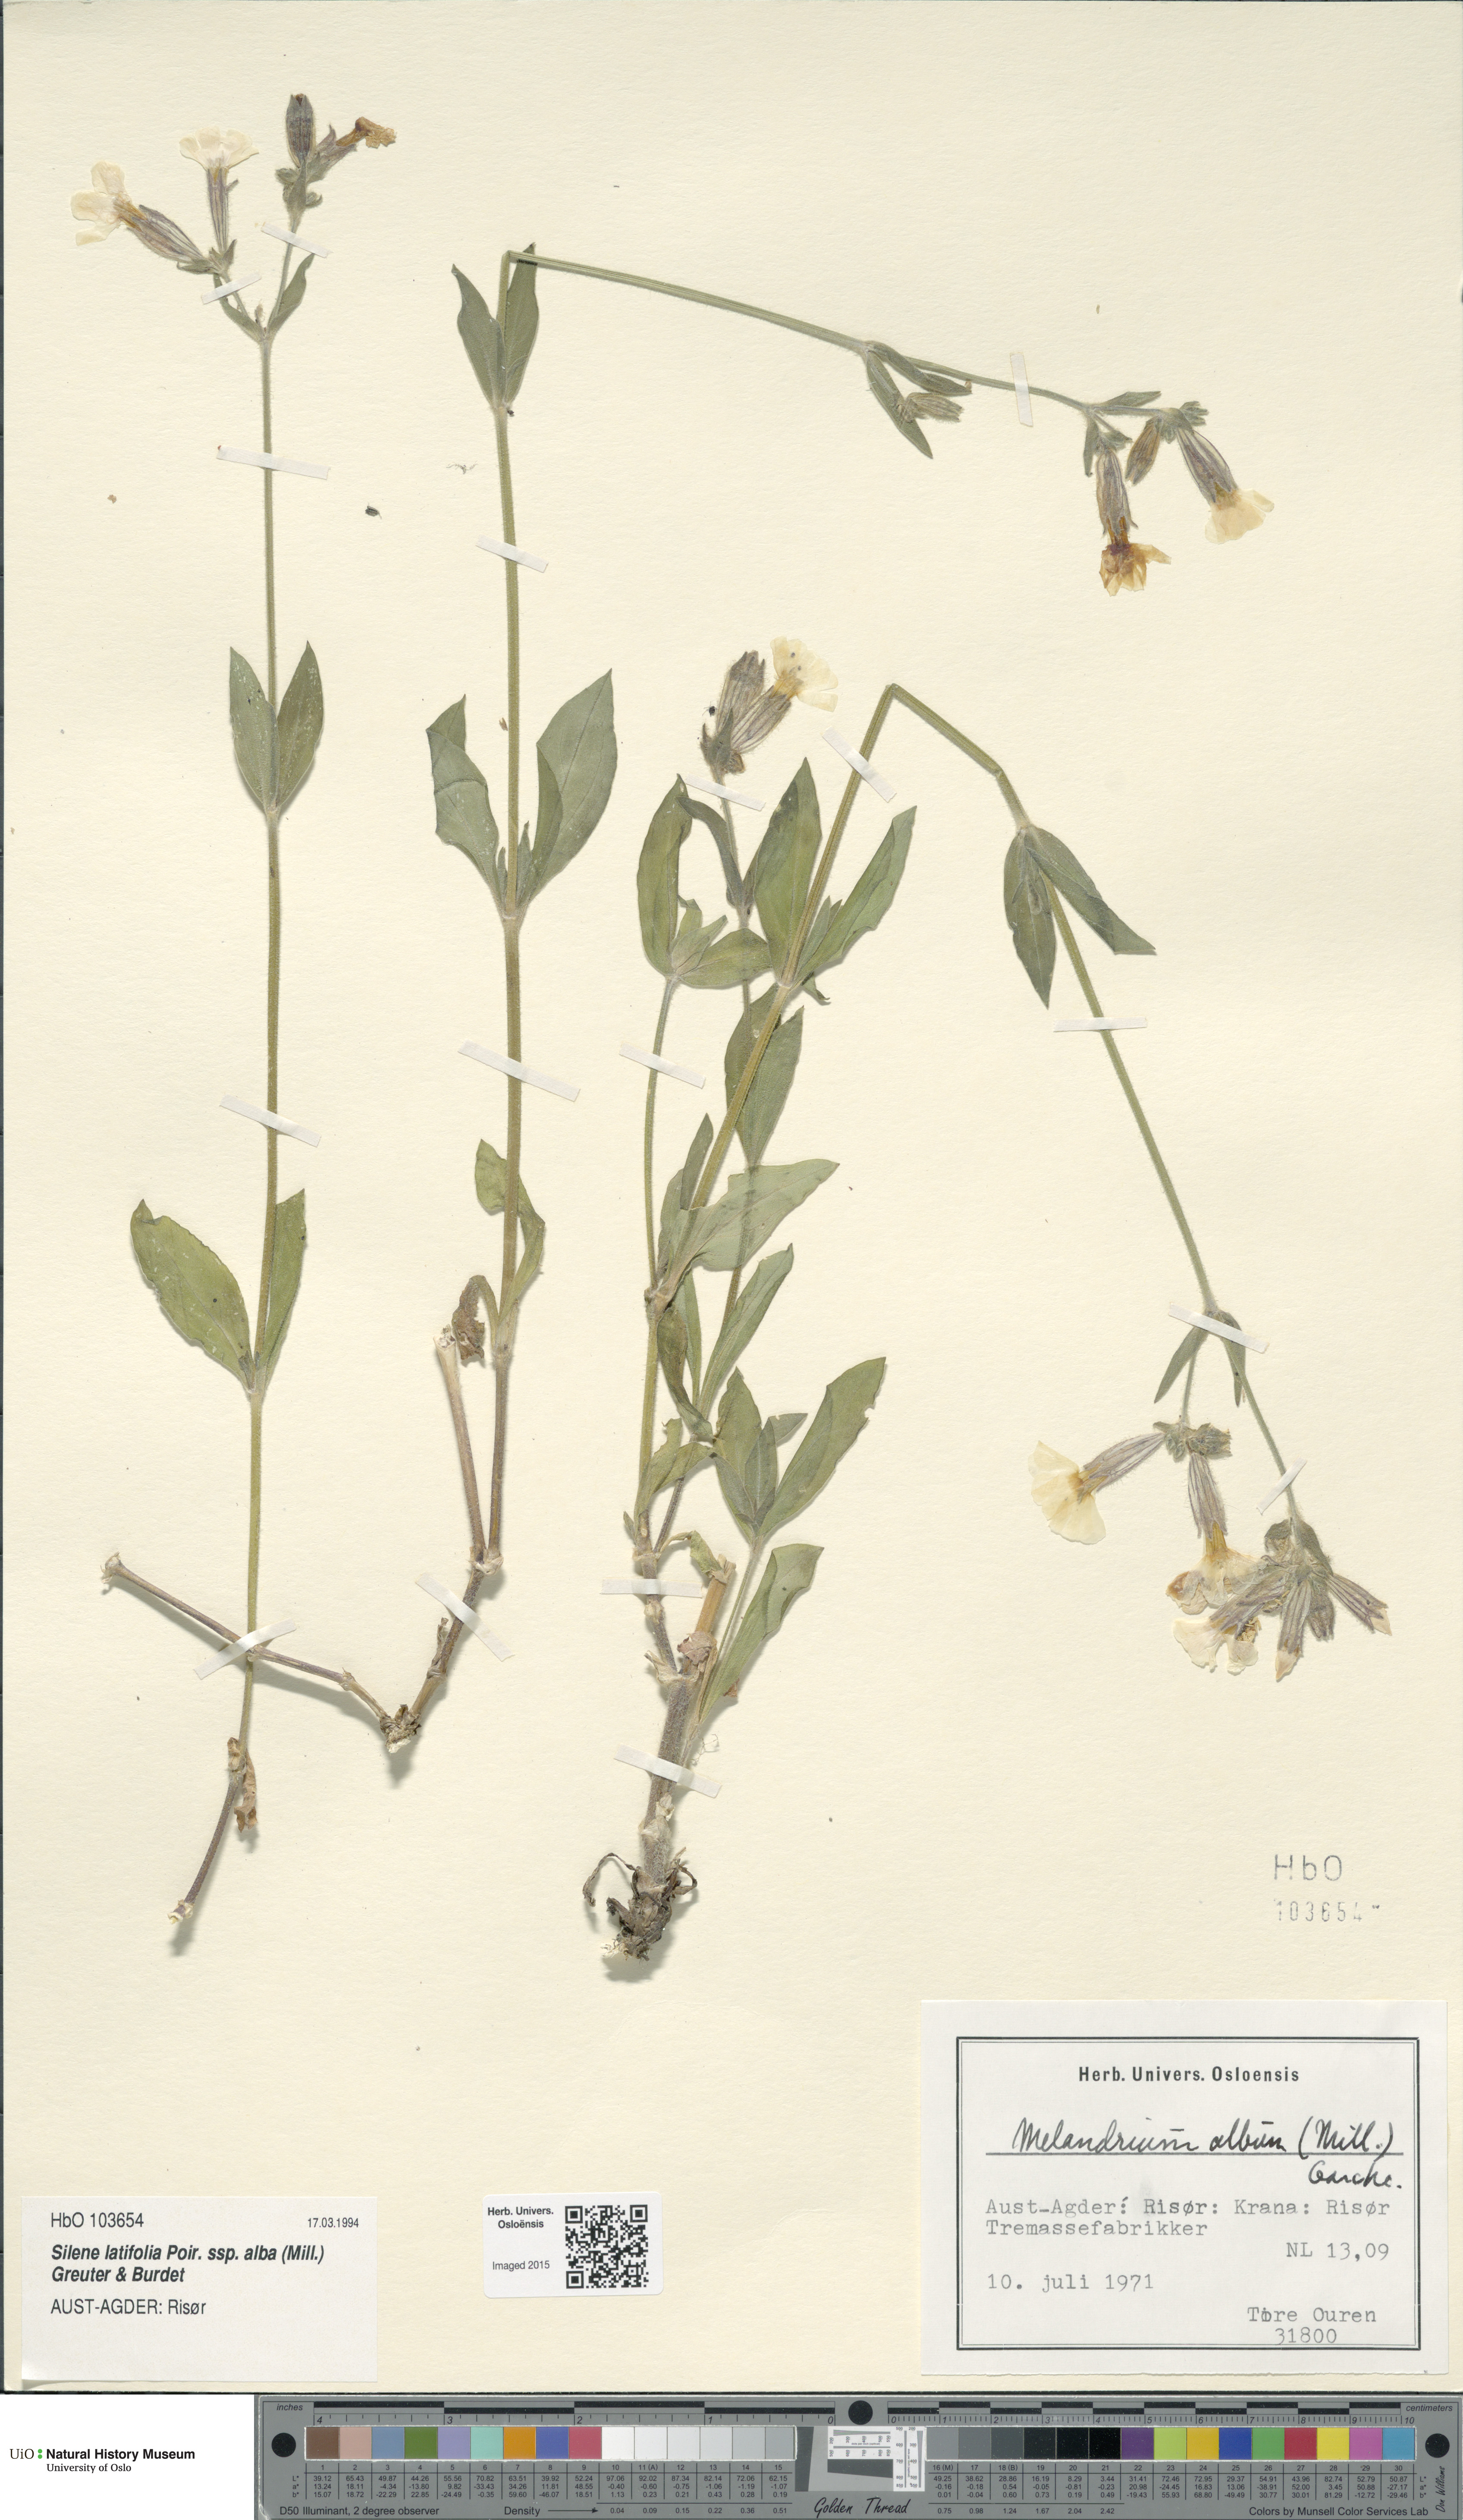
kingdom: Plantae
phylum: Tracheophyta
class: Magnoliopsida
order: Caryophyllales
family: Caryophyllaceae
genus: Silene
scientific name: Silene latifolia
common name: White campion
